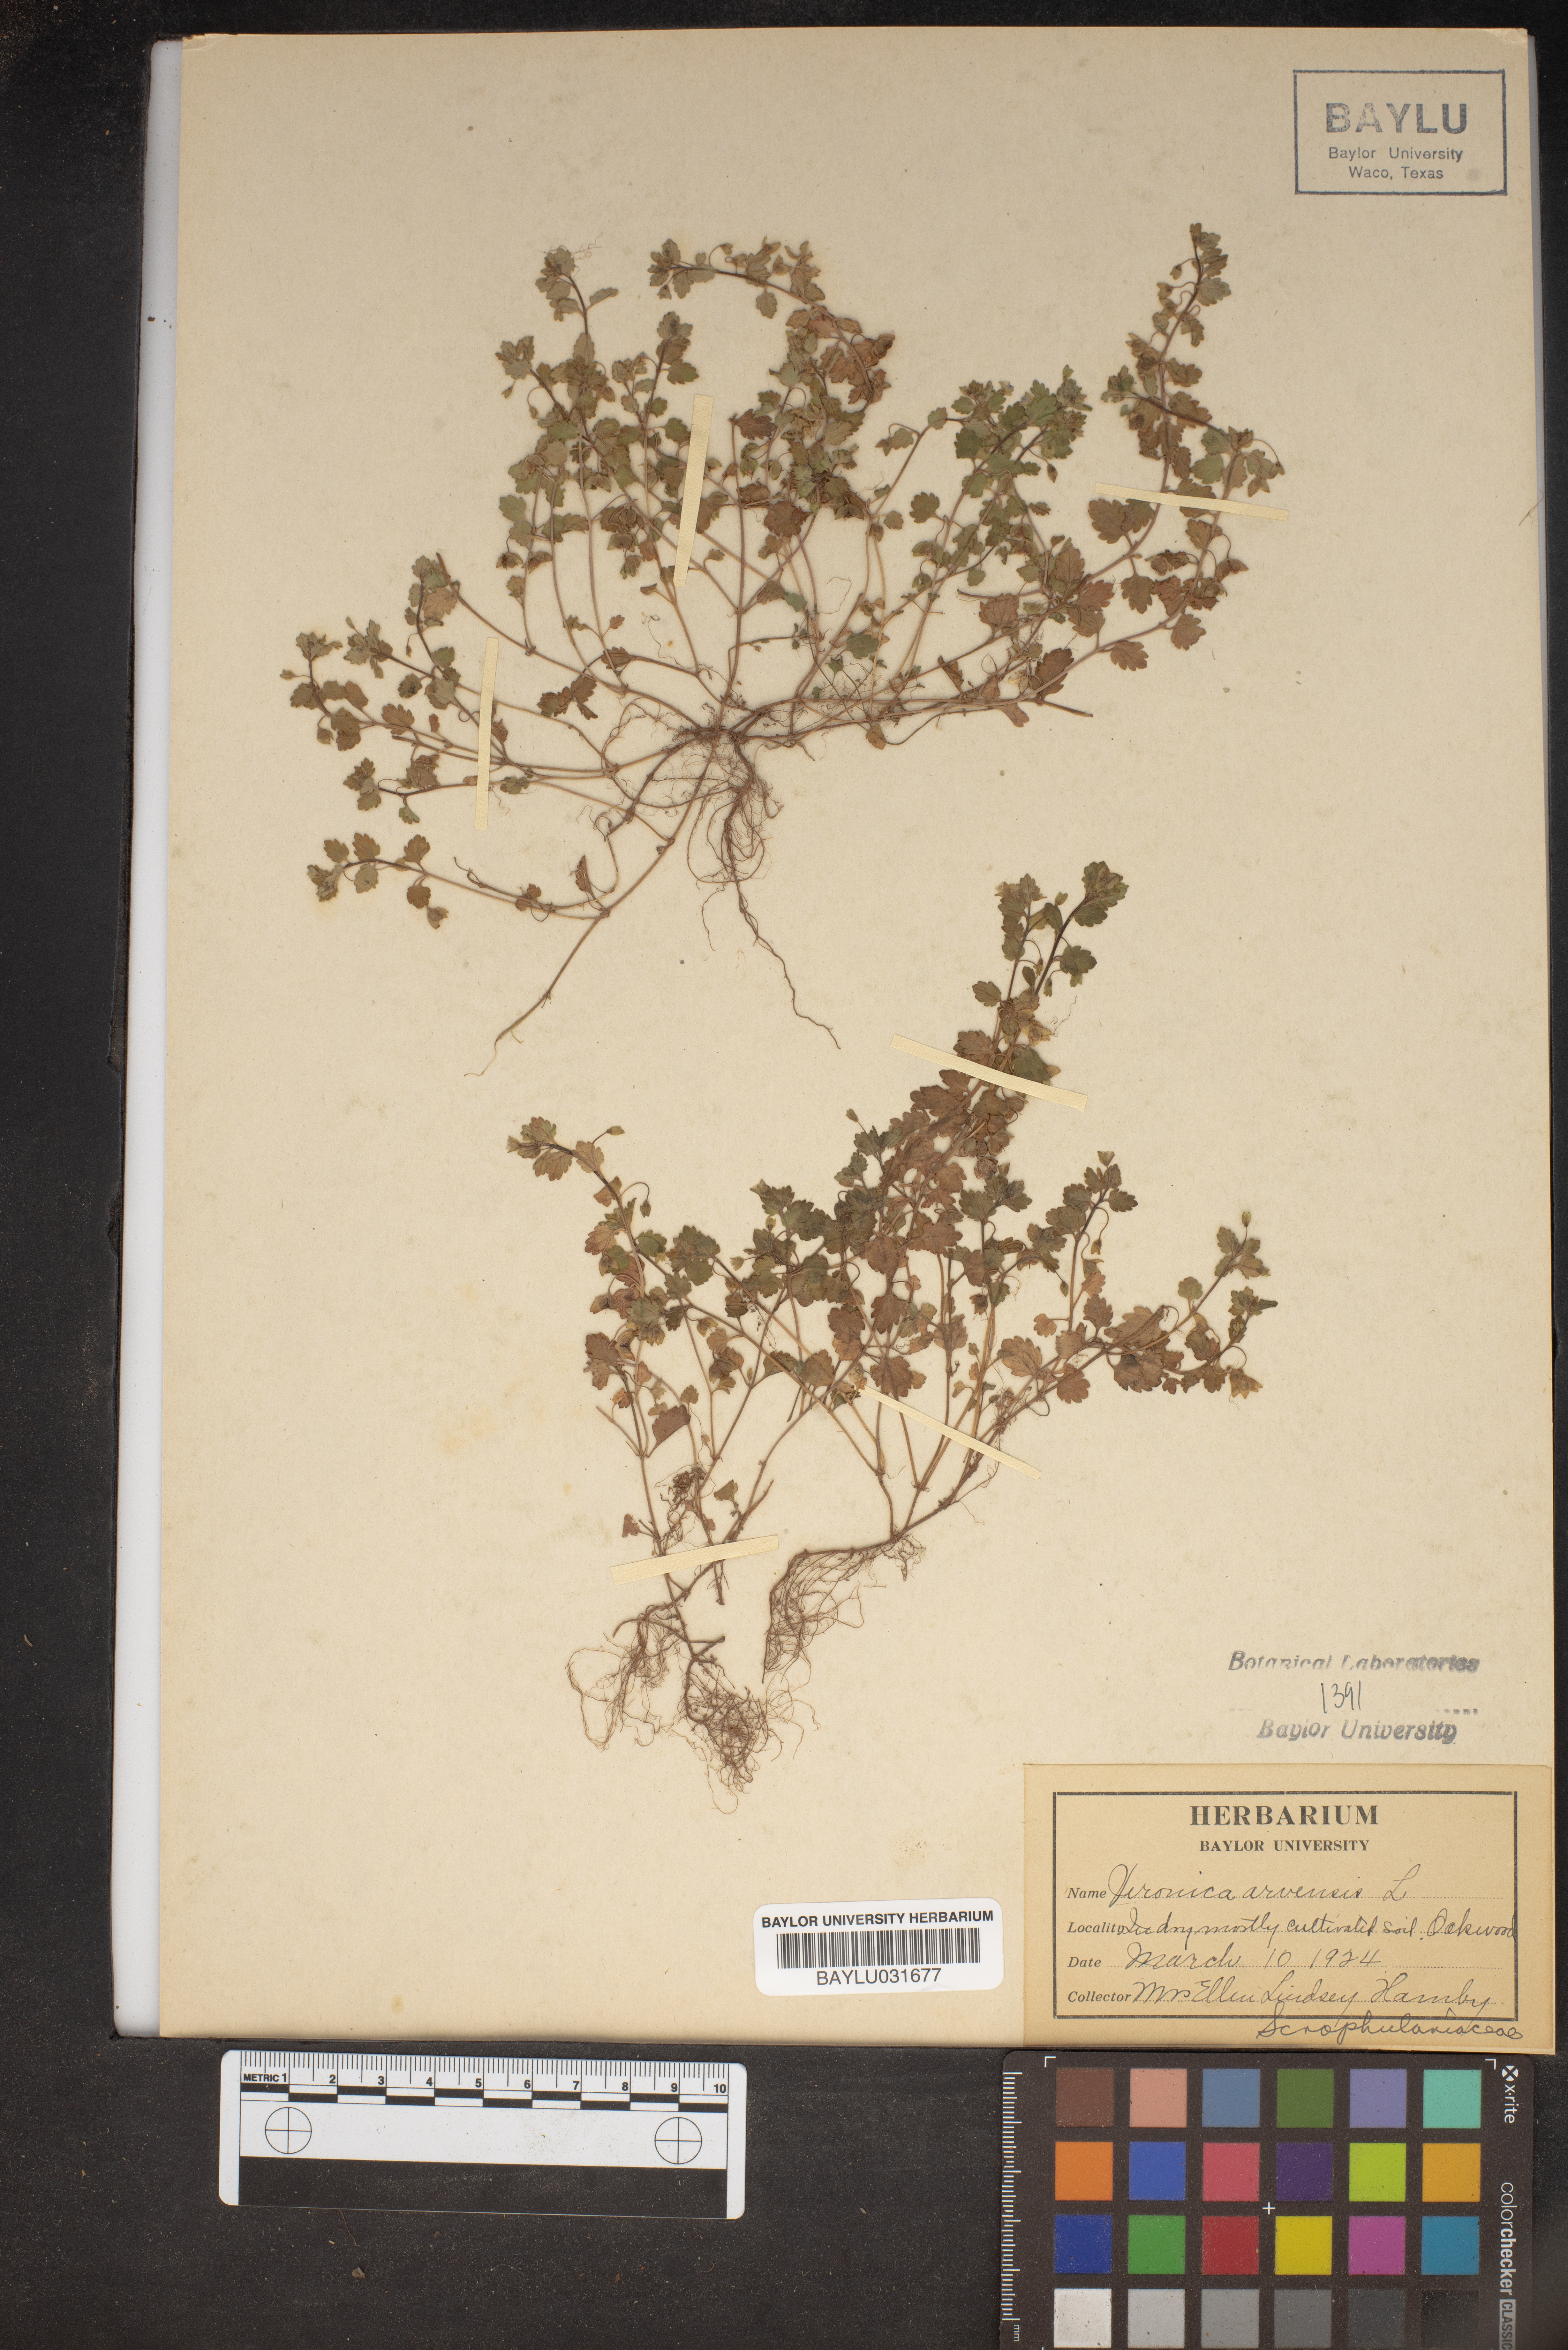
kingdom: Plantae
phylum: Tracheophyta
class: Magnoliopsida
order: Lamiales
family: Plantaginaceae
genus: Veronica
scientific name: Veronica arvensis
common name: Corn speedwell
